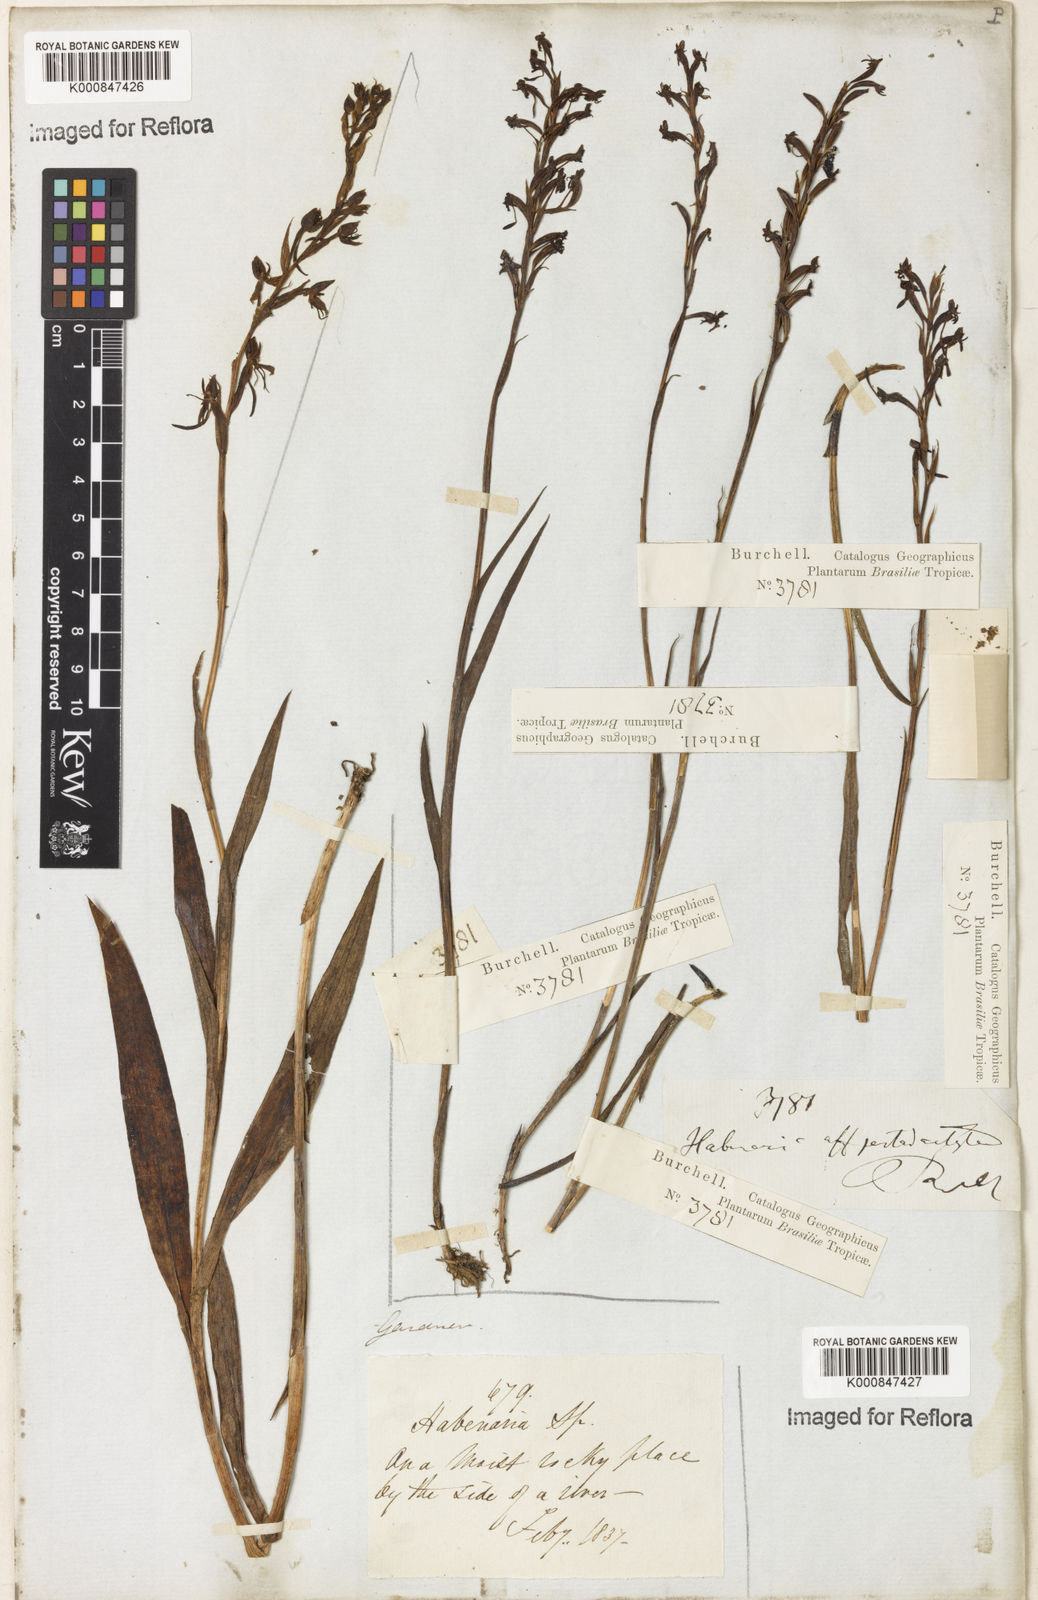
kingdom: Plantae
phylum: Tracheophyta
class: Liliopsida
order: Asparagales
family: Orchidaceae
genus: Habenaria
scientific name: Habenaria gracilis
